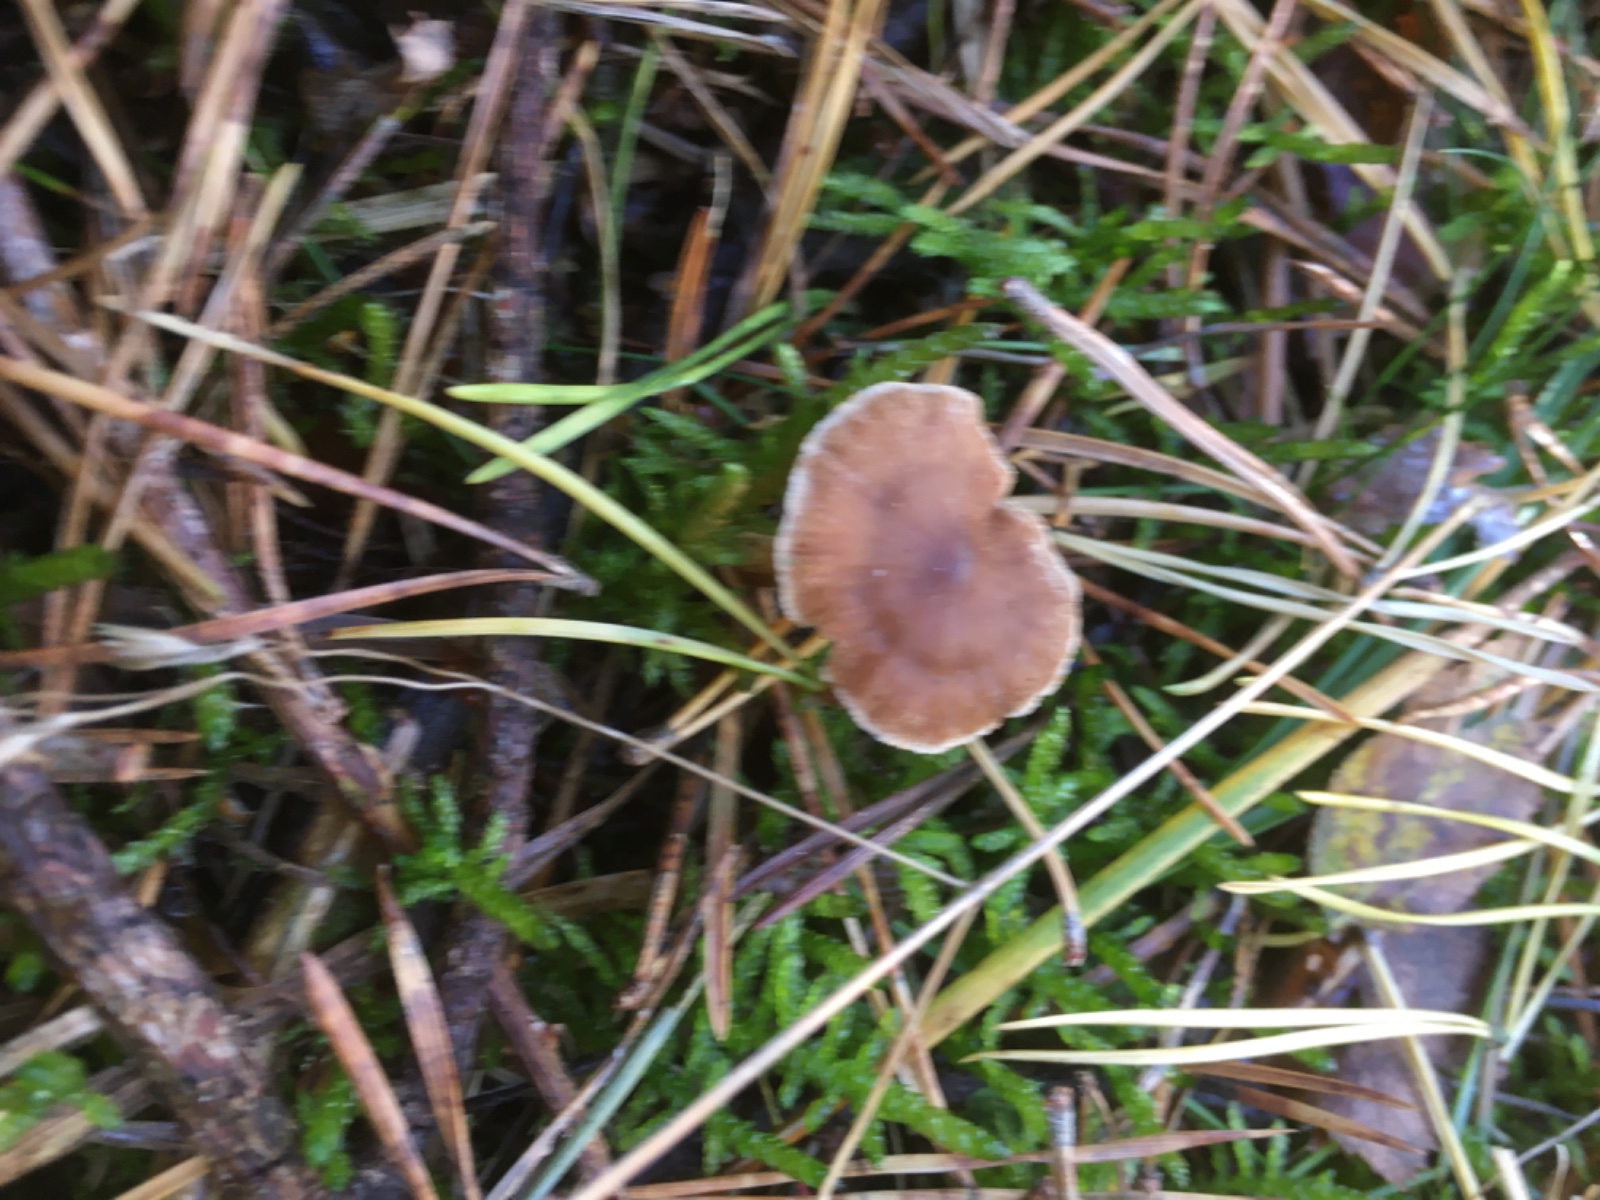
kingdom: Fungi
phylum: Basidiomycota
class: Agaricomycetes
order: Agaricales
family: Cortinariaceae
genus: Cortinarius
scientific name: Cortinarius
